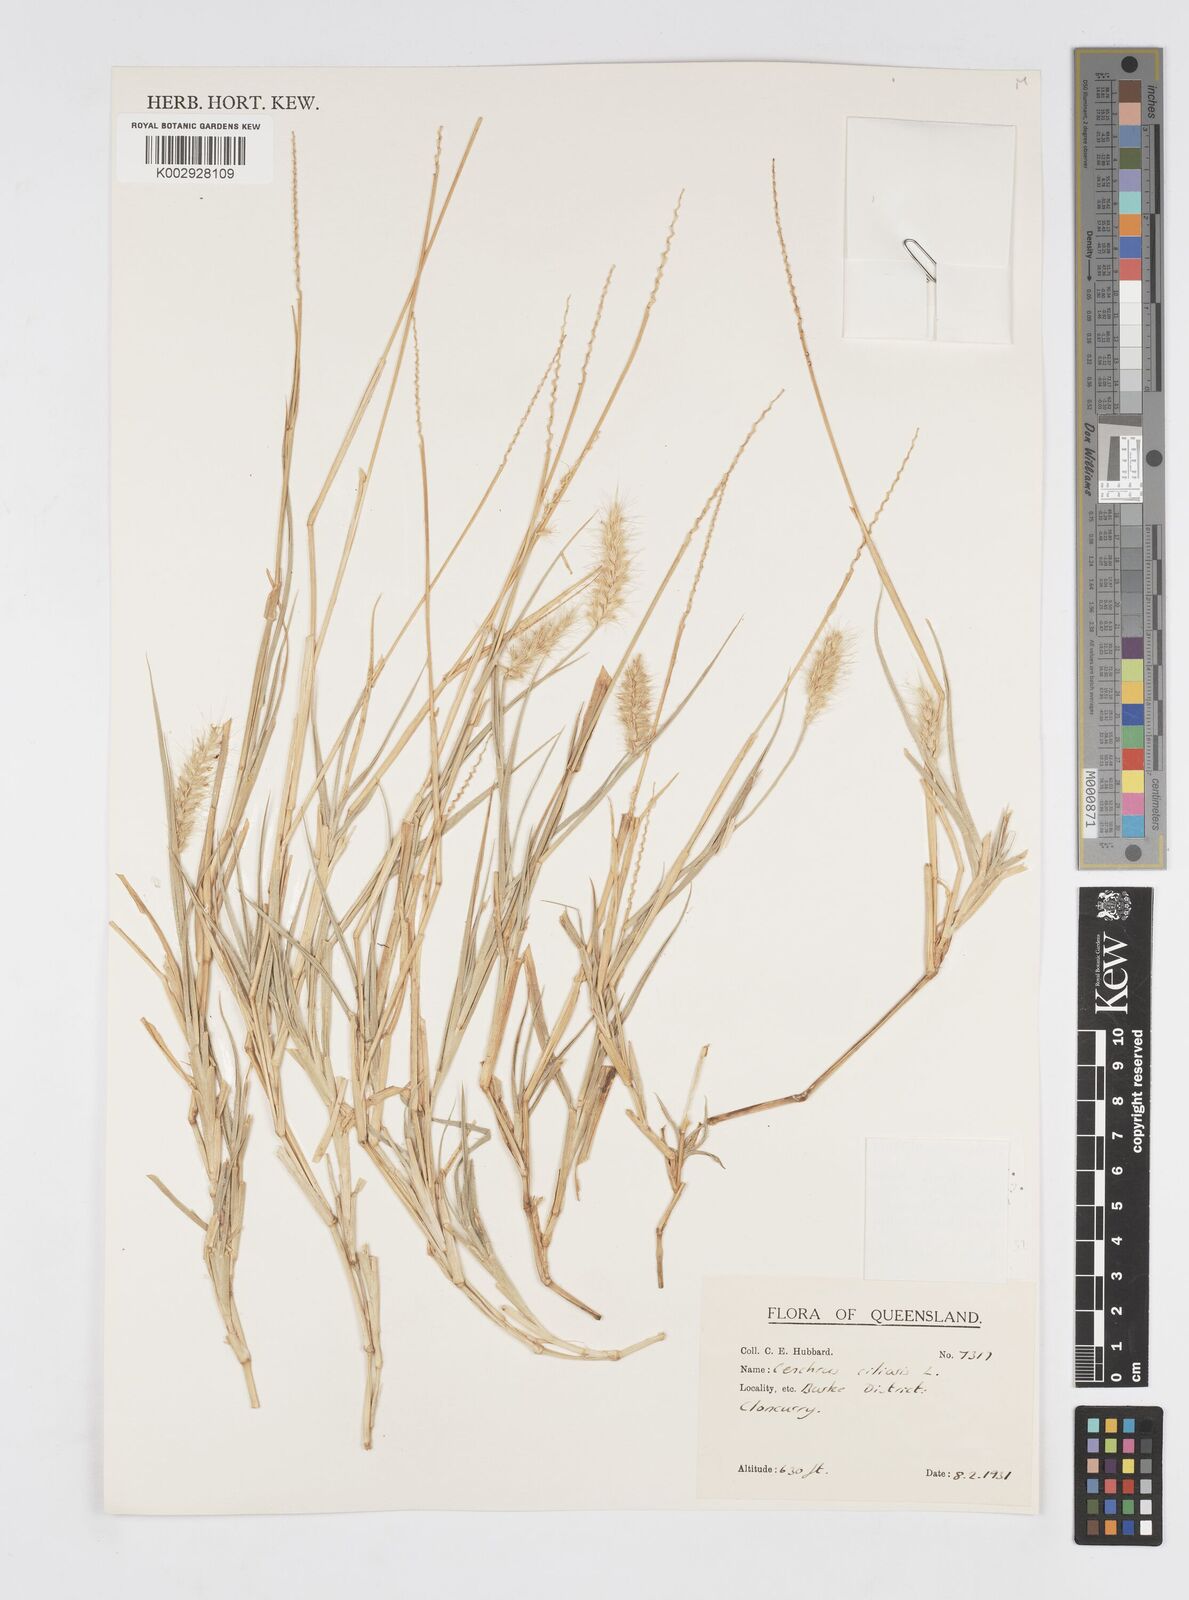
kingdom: Plantae
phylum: Tracheophyta
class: Liliopsida
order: Poales
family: Poaceae
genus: Cenchrus
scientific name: Cenchrus ciliaris
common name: Buffelgrass
